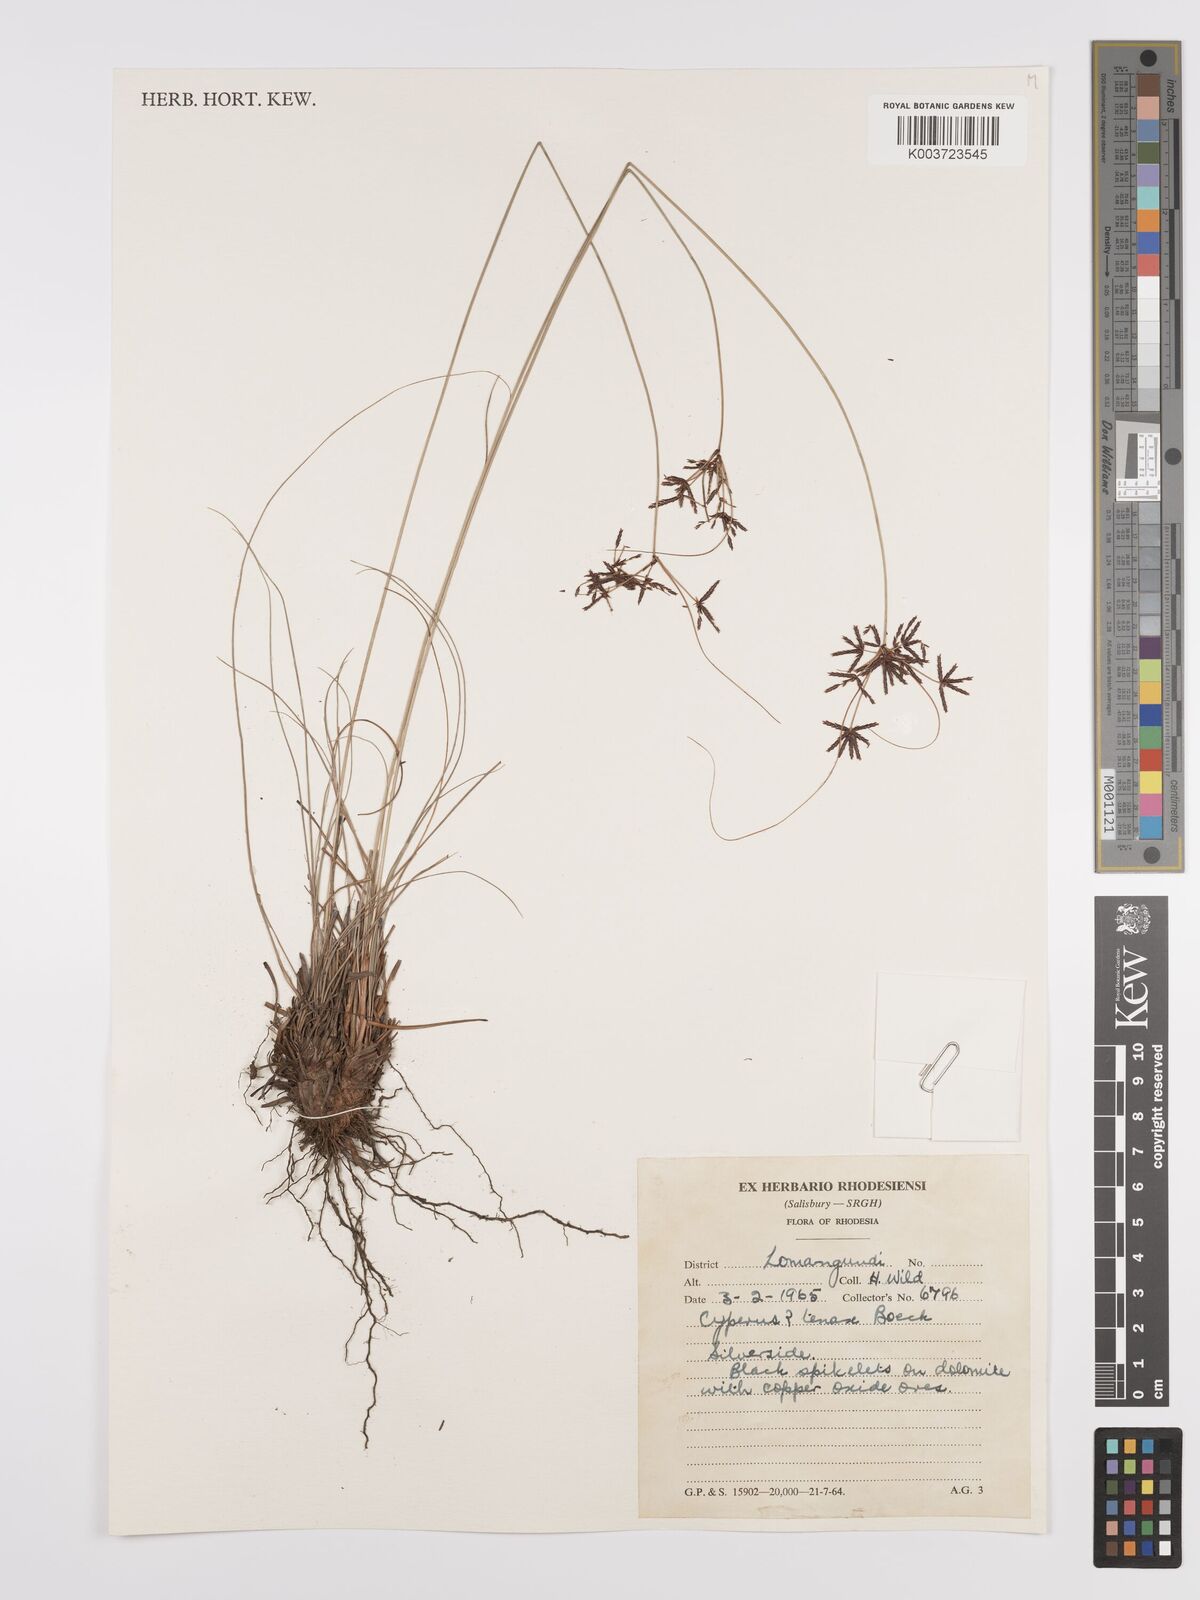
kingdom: Plantae
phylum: Tracheophyta
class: Liliopsida
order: Poales
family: Cyperaceae
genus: Cyperus
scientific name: Cyperus tenax
